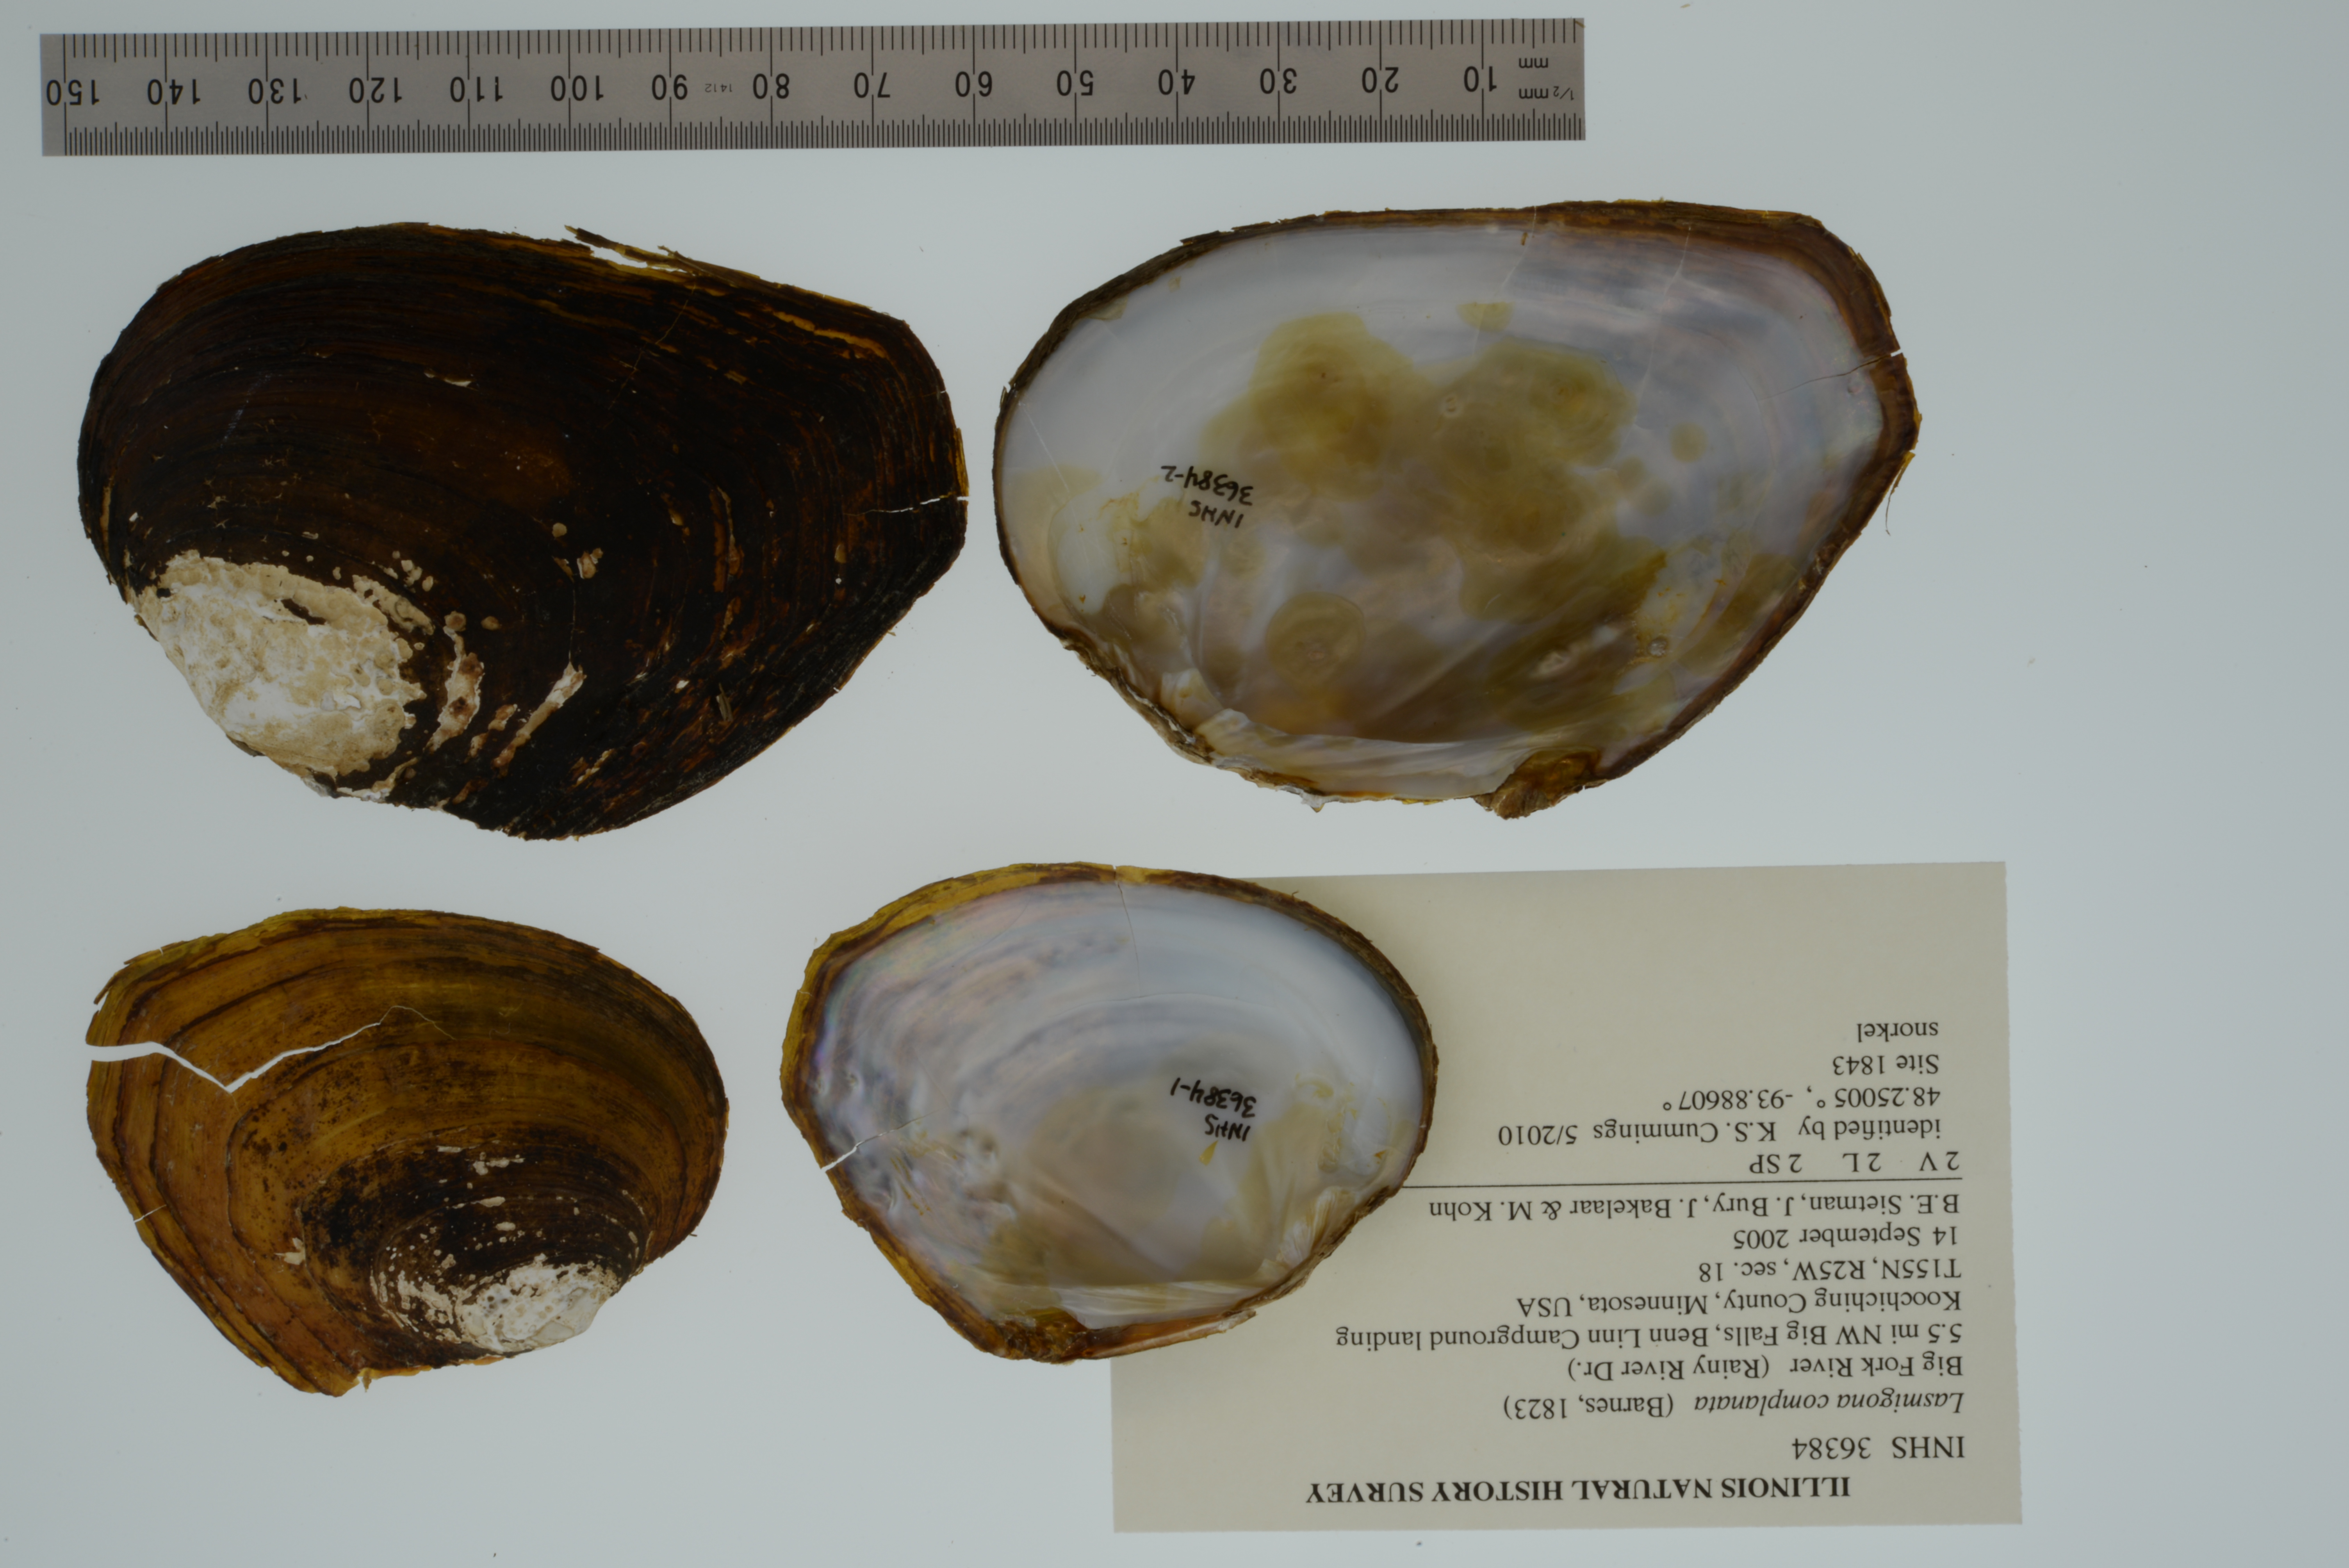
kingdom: Animalia
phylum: Mollusca
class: Bivalvia
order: Unionida
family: Unionidae
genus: Lasmigona
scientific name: Lasmigona complanata
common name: White heelsplitter
